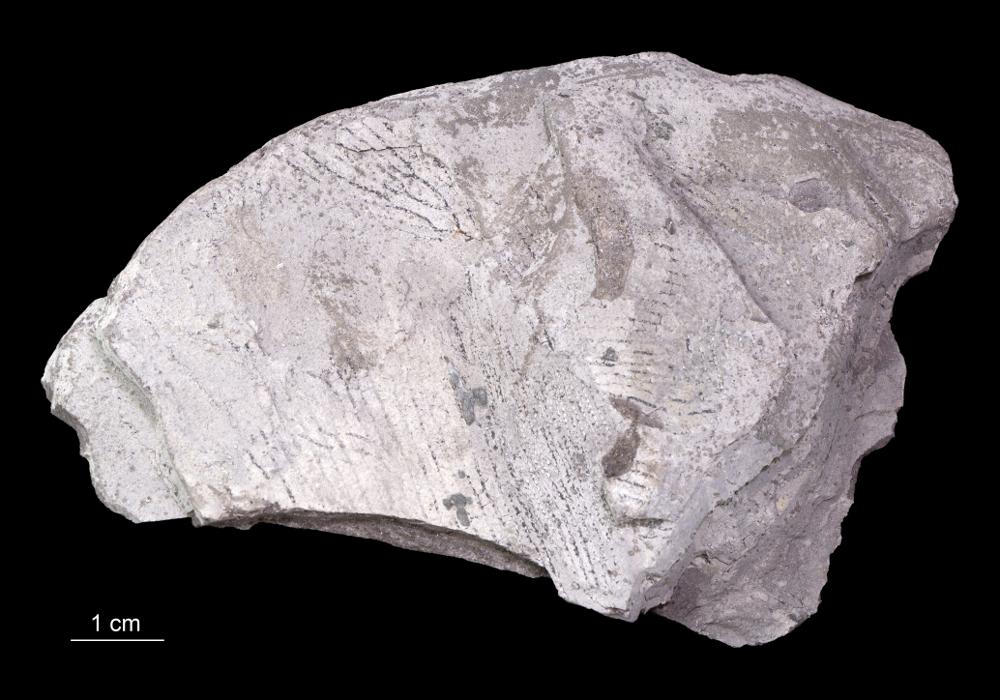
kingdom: Animalia
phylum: Hemichordata
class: Pterobranchia
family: Anisograptidae
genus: Rhabdinopora
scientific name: Rhabdinopora Gorgonia flabelliformis
